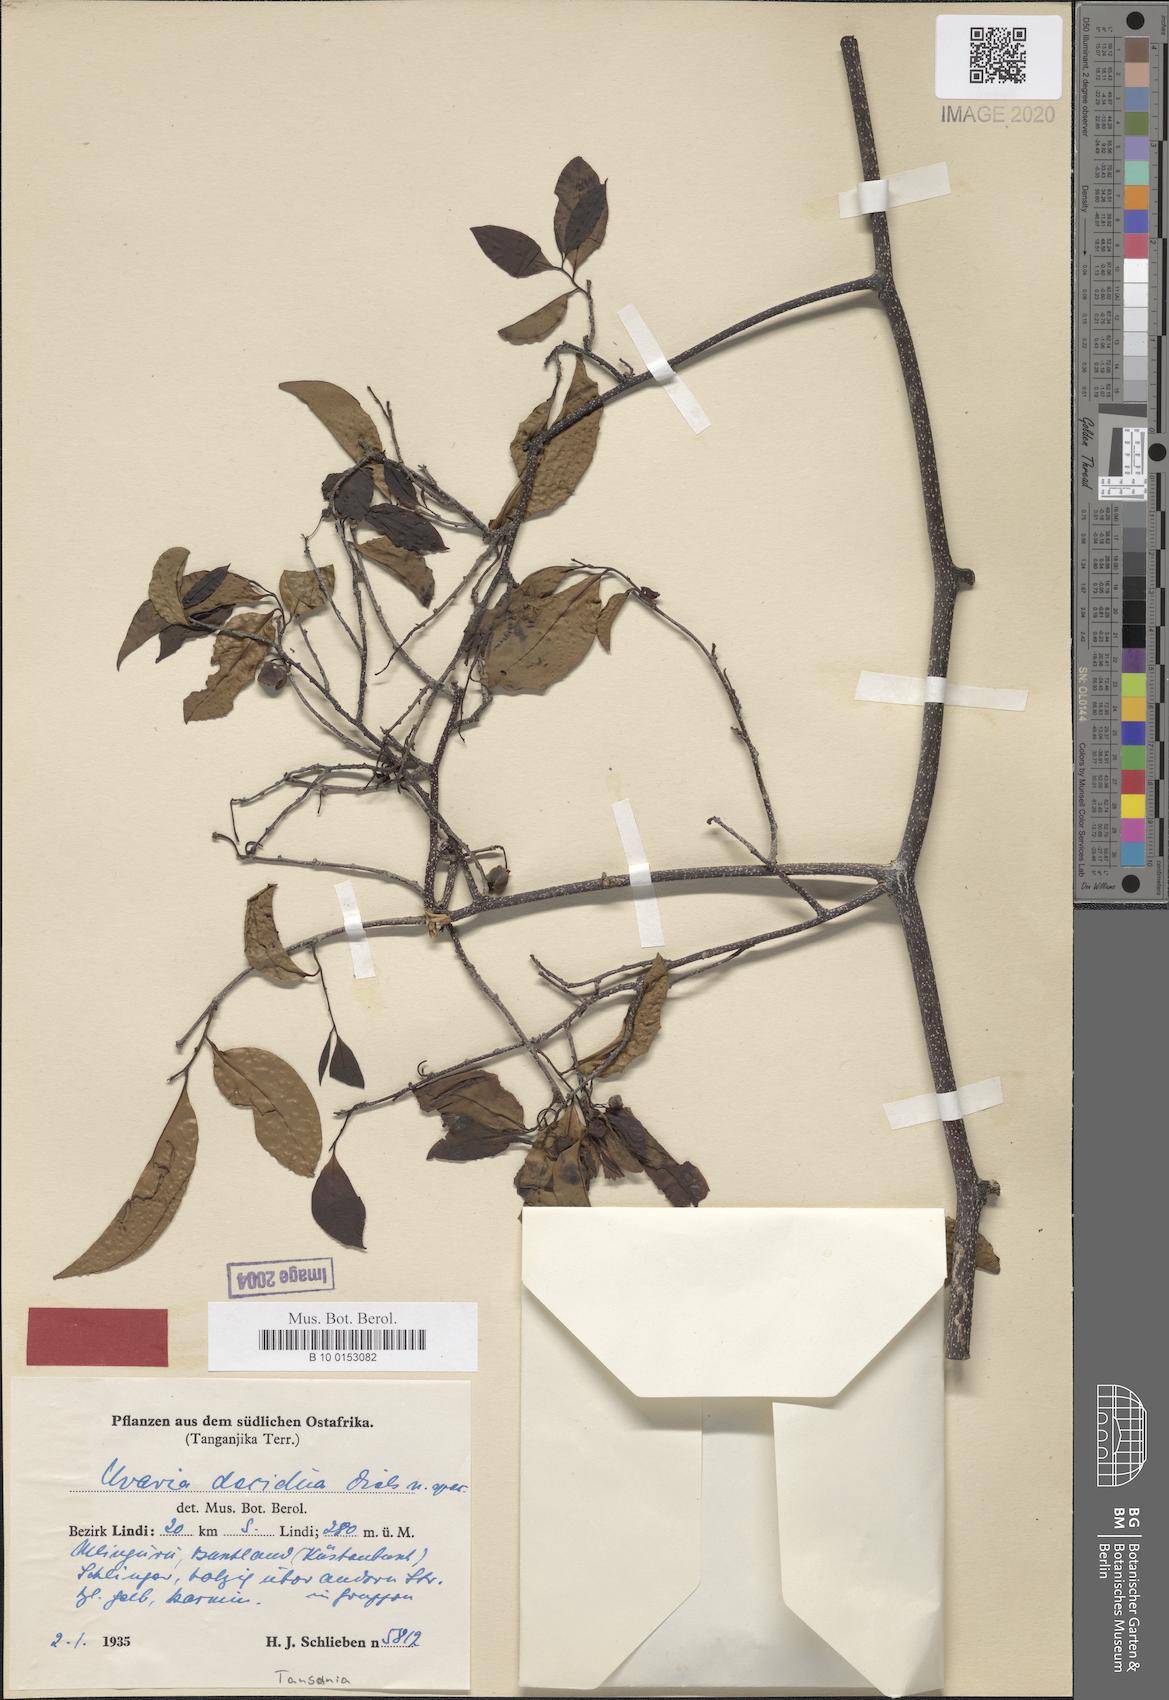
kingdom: Plantae
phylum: Tracheophyta
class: Magnoliopsida
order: Magnoliales
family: Annonaceae
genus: Uvaria
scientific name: Uvaria decidua
